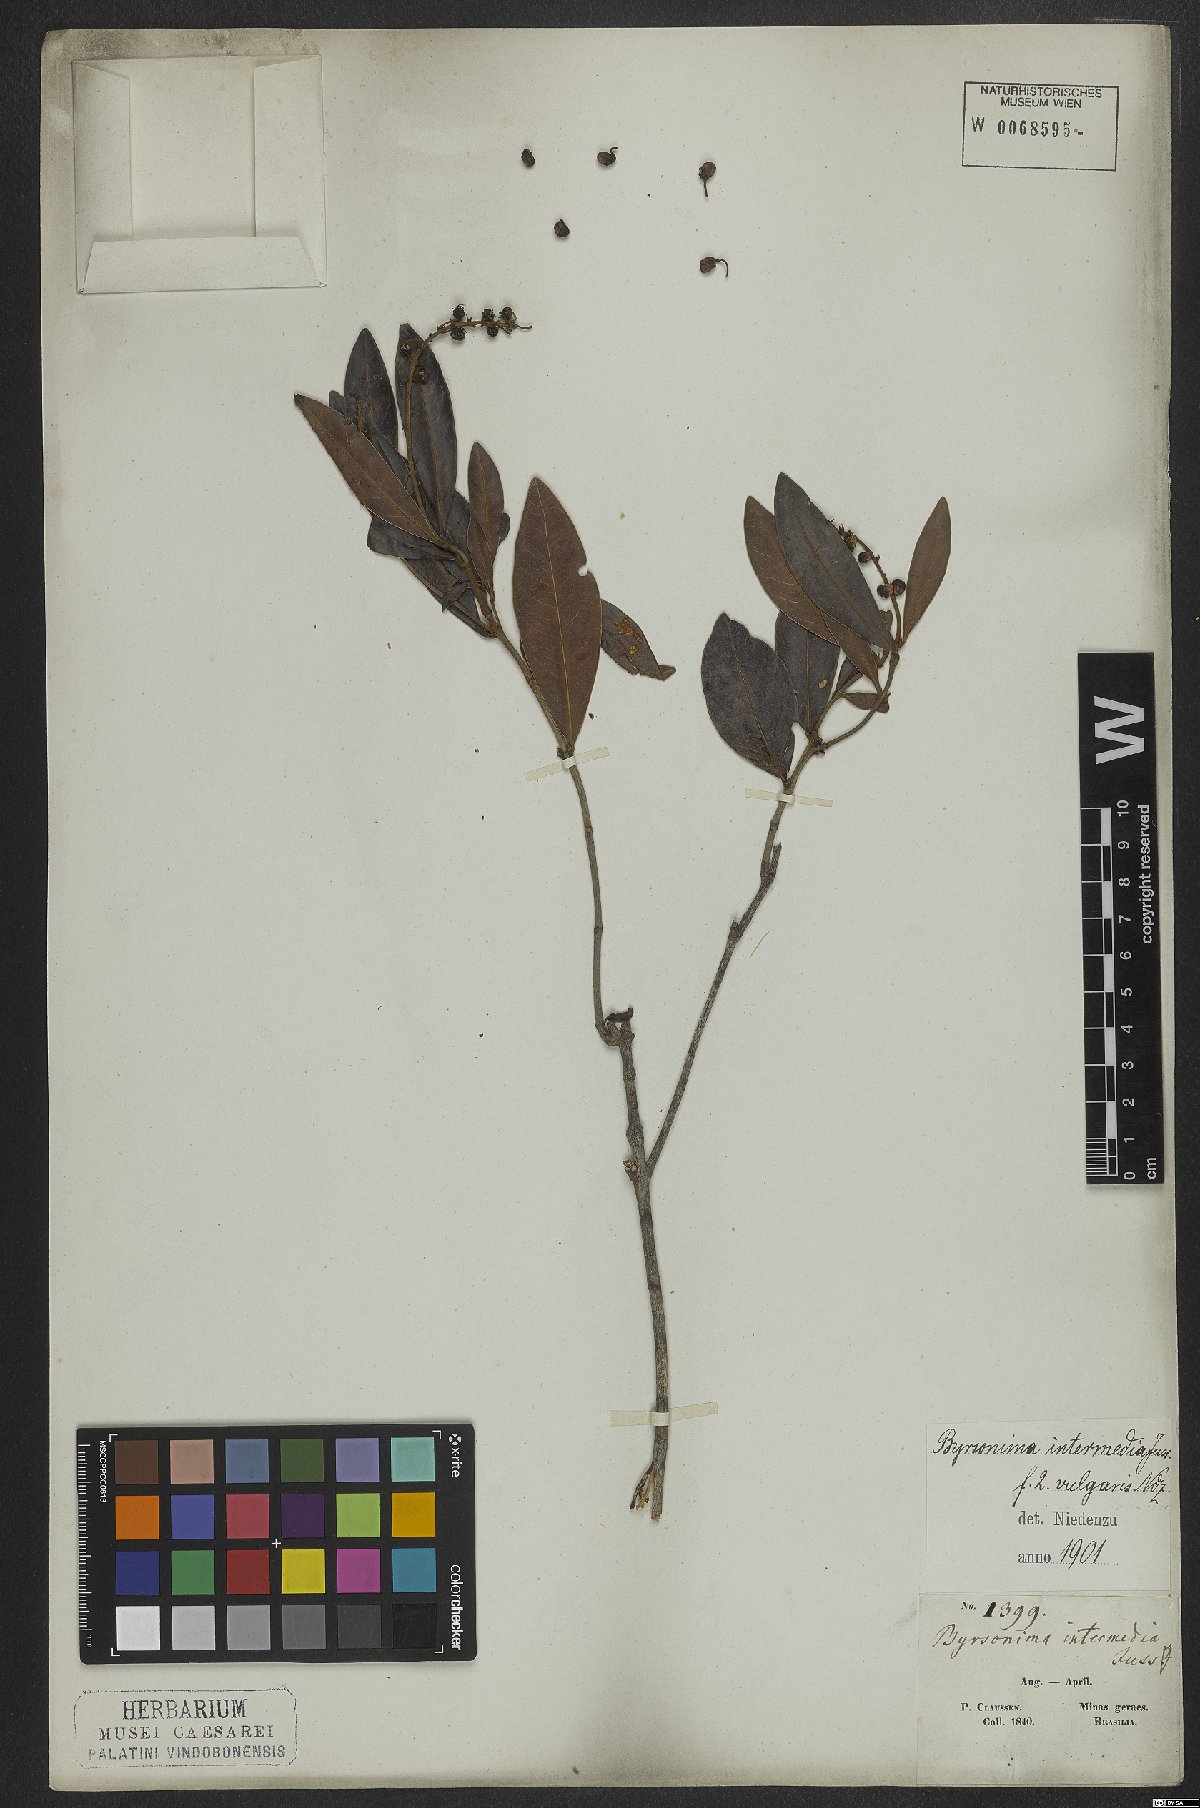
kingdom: Plantae
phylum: Tracheophyta
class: Magnoliopsida
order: Malpighiales
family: Malpighiaceae
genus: Byrsonima
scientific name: Byrsonima intermedia
